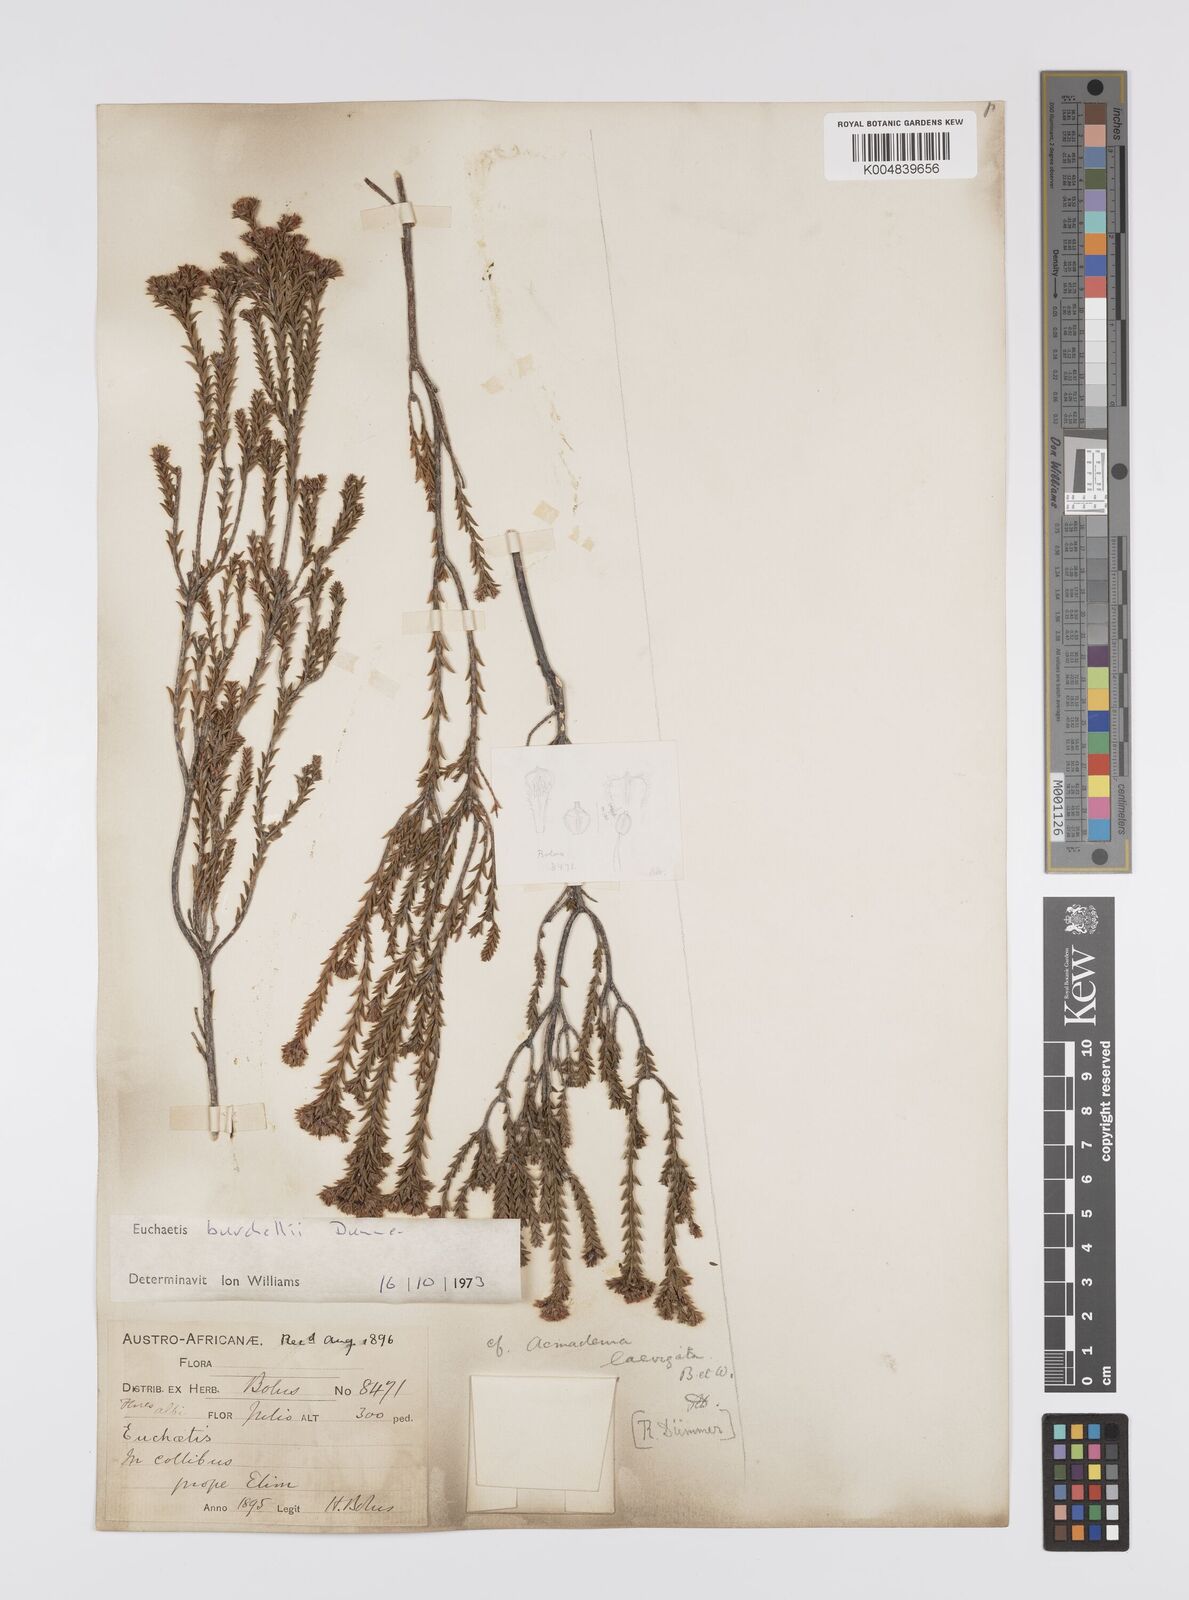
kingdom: Plantae
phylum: Tracheophyta
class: Magnoliopsida
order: Sapindales
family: Rutaceae
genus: Euchaetis
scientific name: Euchaetis burchellii
